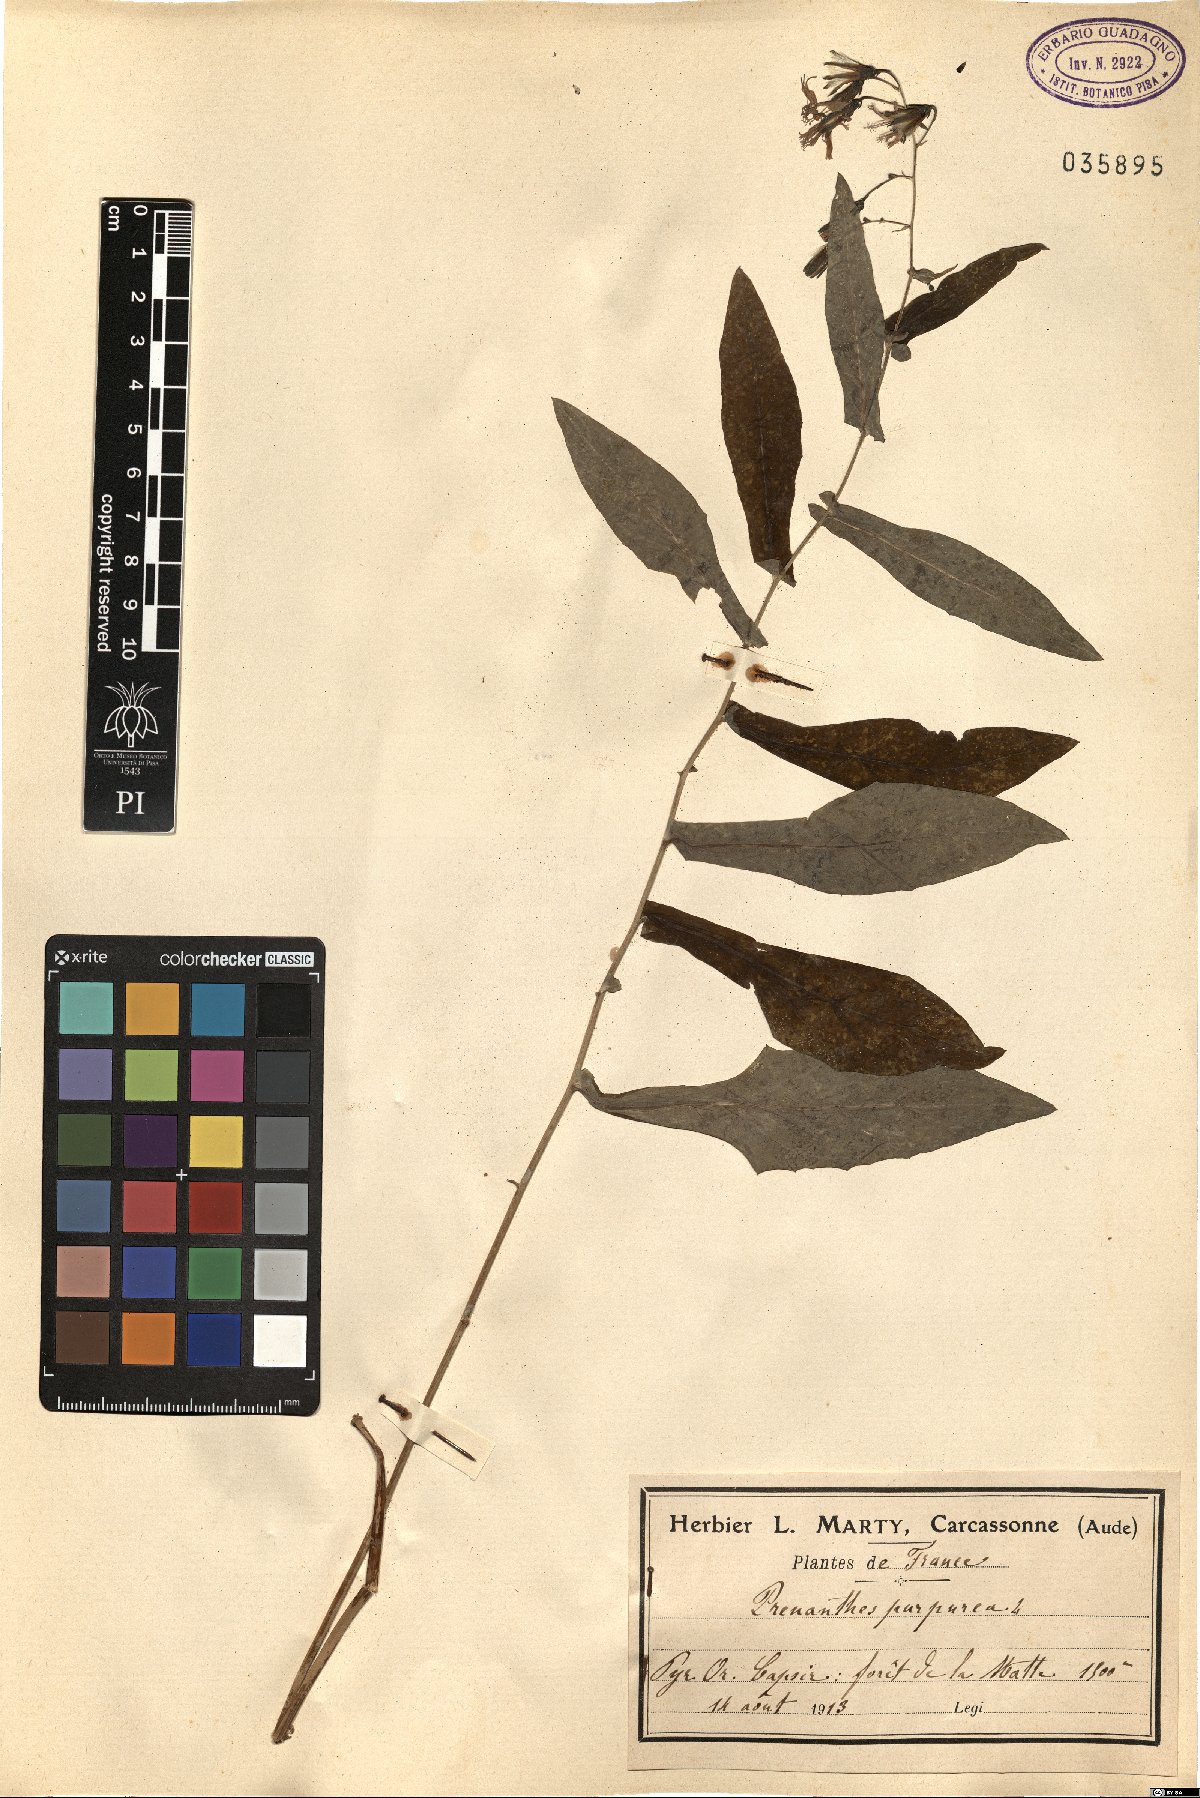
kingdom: Plantae
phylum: Tracheophyta
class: Magnoliopsida
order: Asterales
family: Asteraceae
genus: Prenanthes
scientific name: Prenanthes purpurea
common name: Purple lettuce
